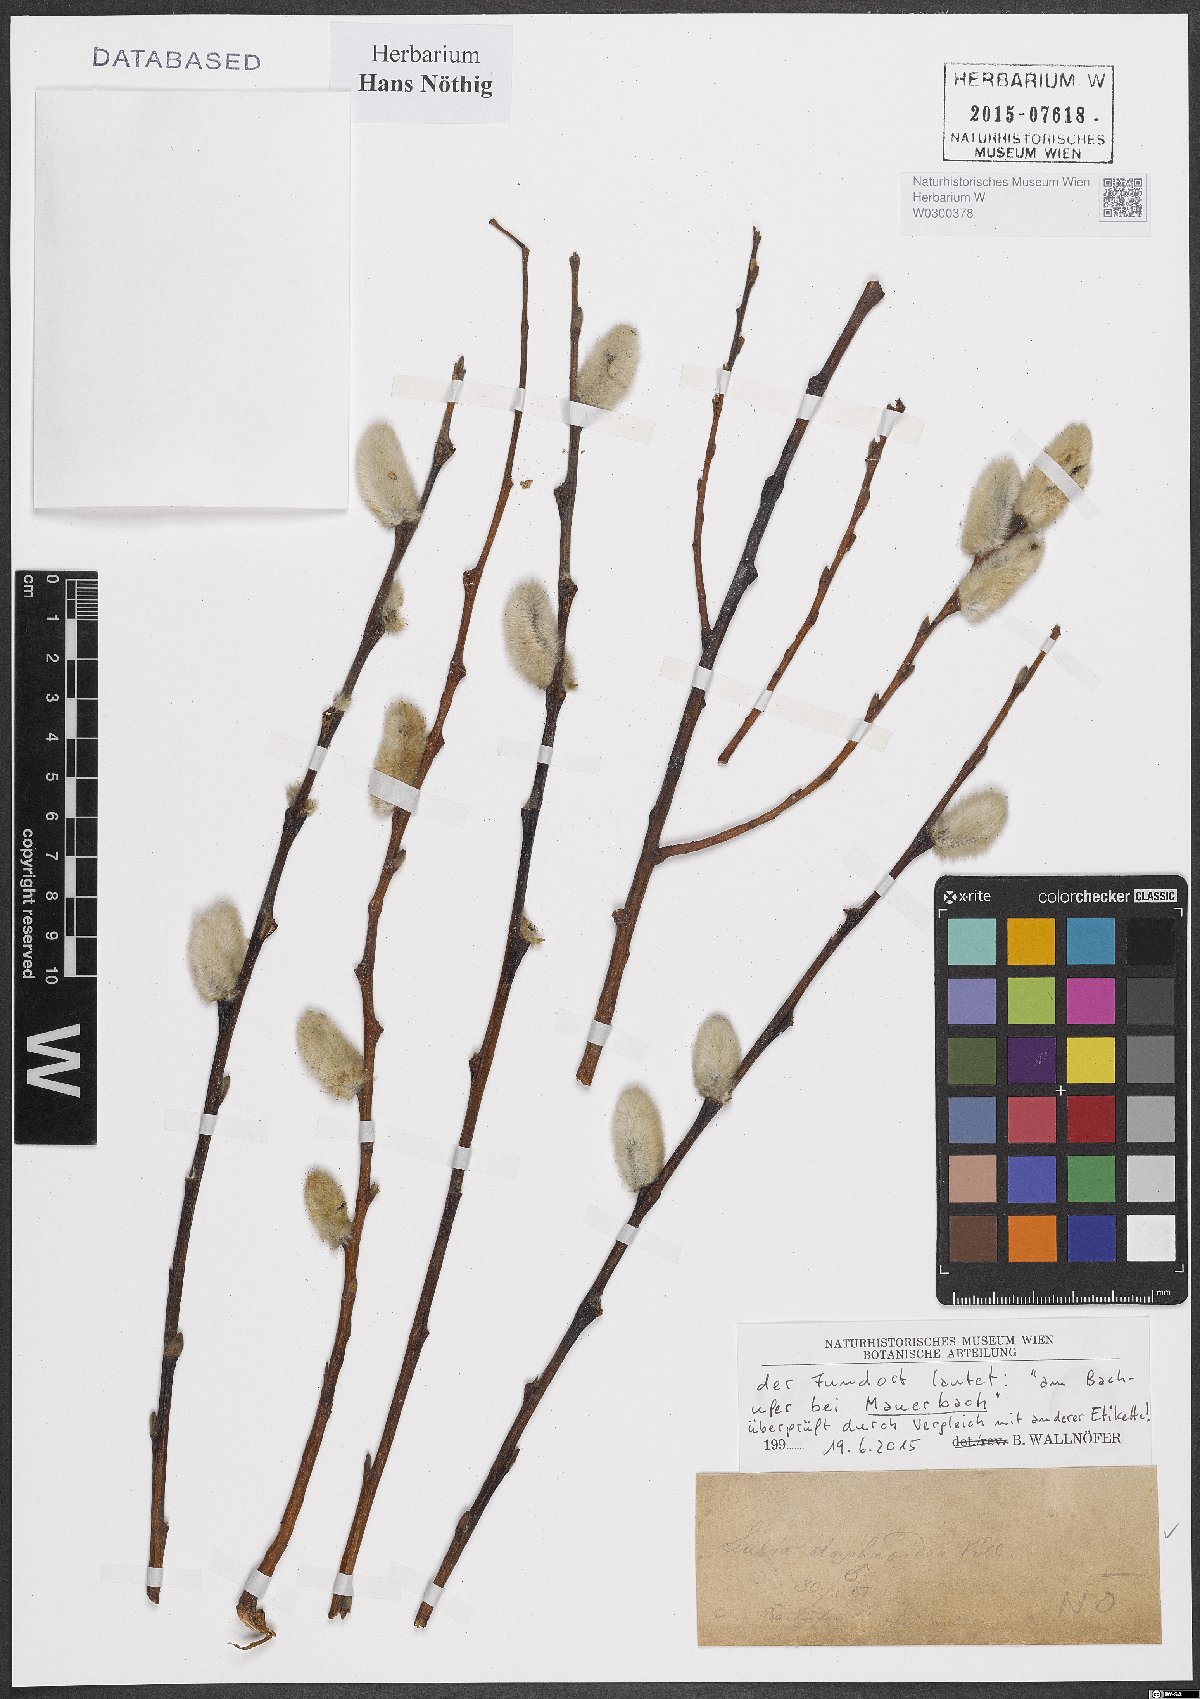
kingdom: Plantae
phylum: Tracheophyta
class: Magnoliopsida
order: Malpighiales
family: Salicaceae
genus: Salix
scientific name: Salix daphnoides
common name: European violet-willow
